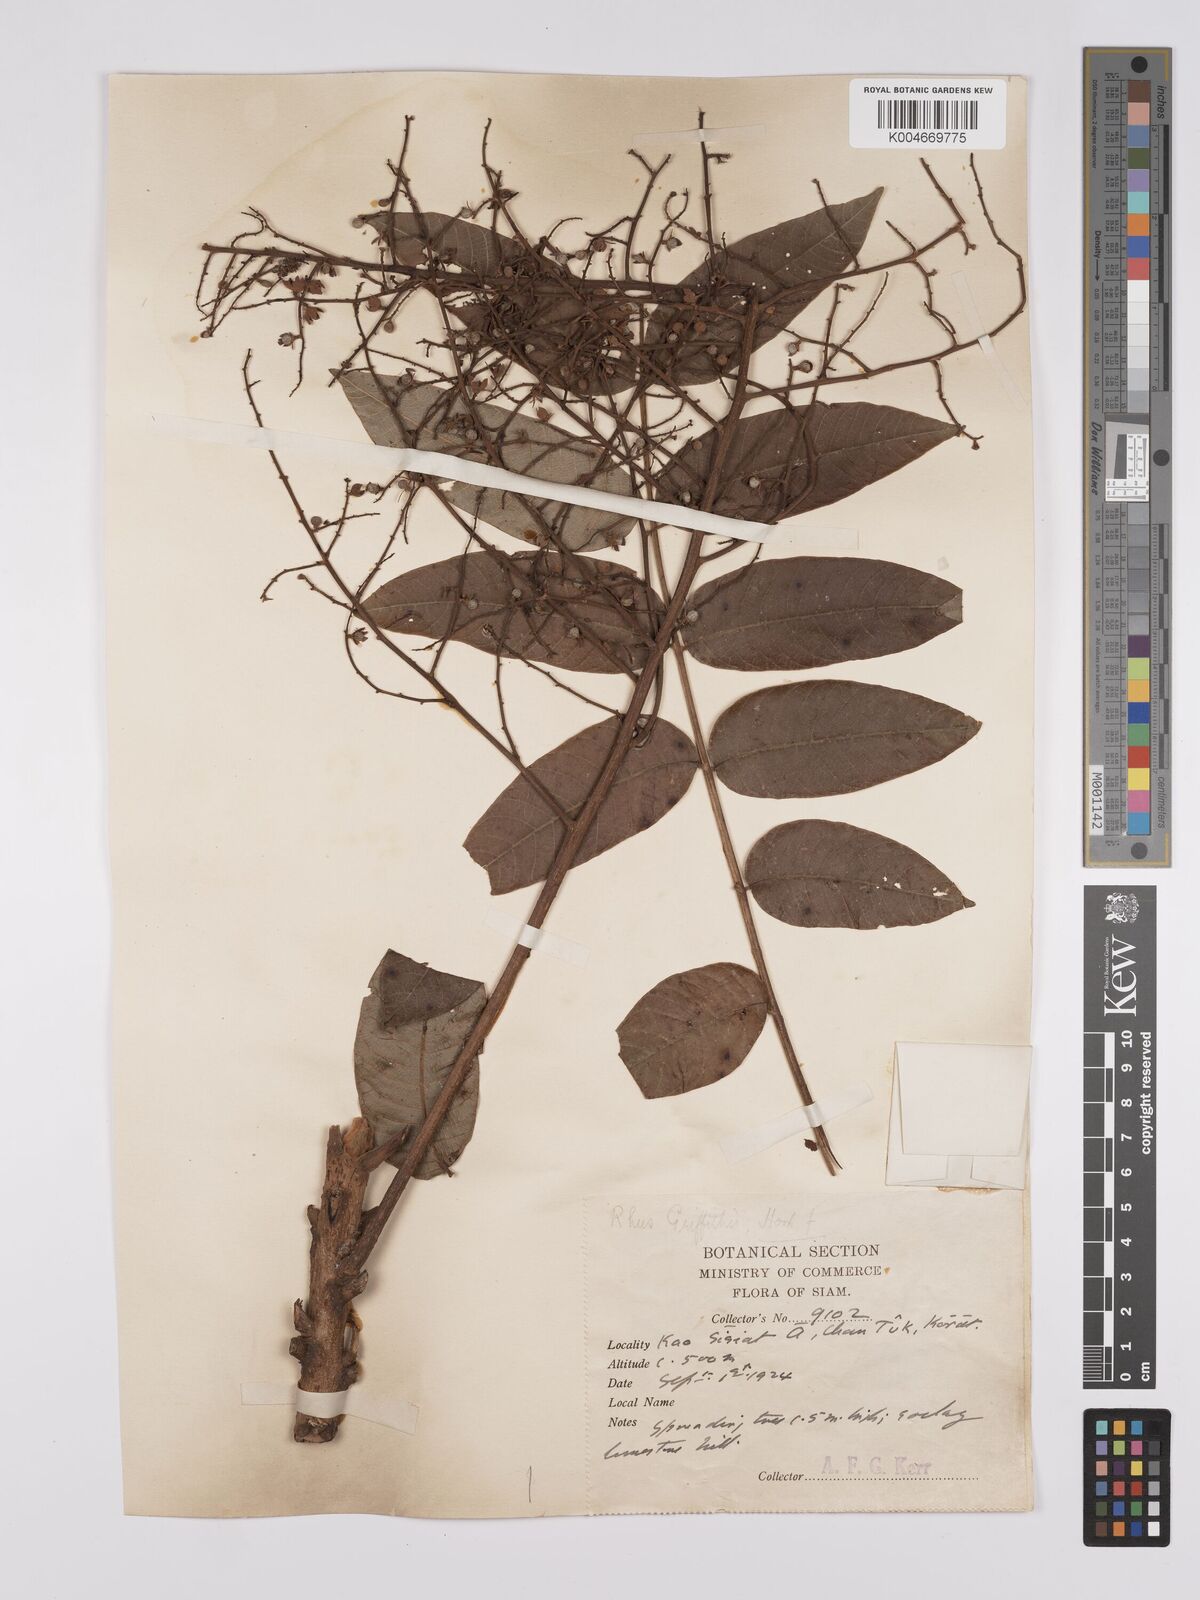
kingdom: Plantae
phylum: Tracheophyta
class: Magnoliopsida
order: Sapindales
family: Anacardiaceae
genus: Toxicodendron
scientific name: Toxicodendron griffithii
